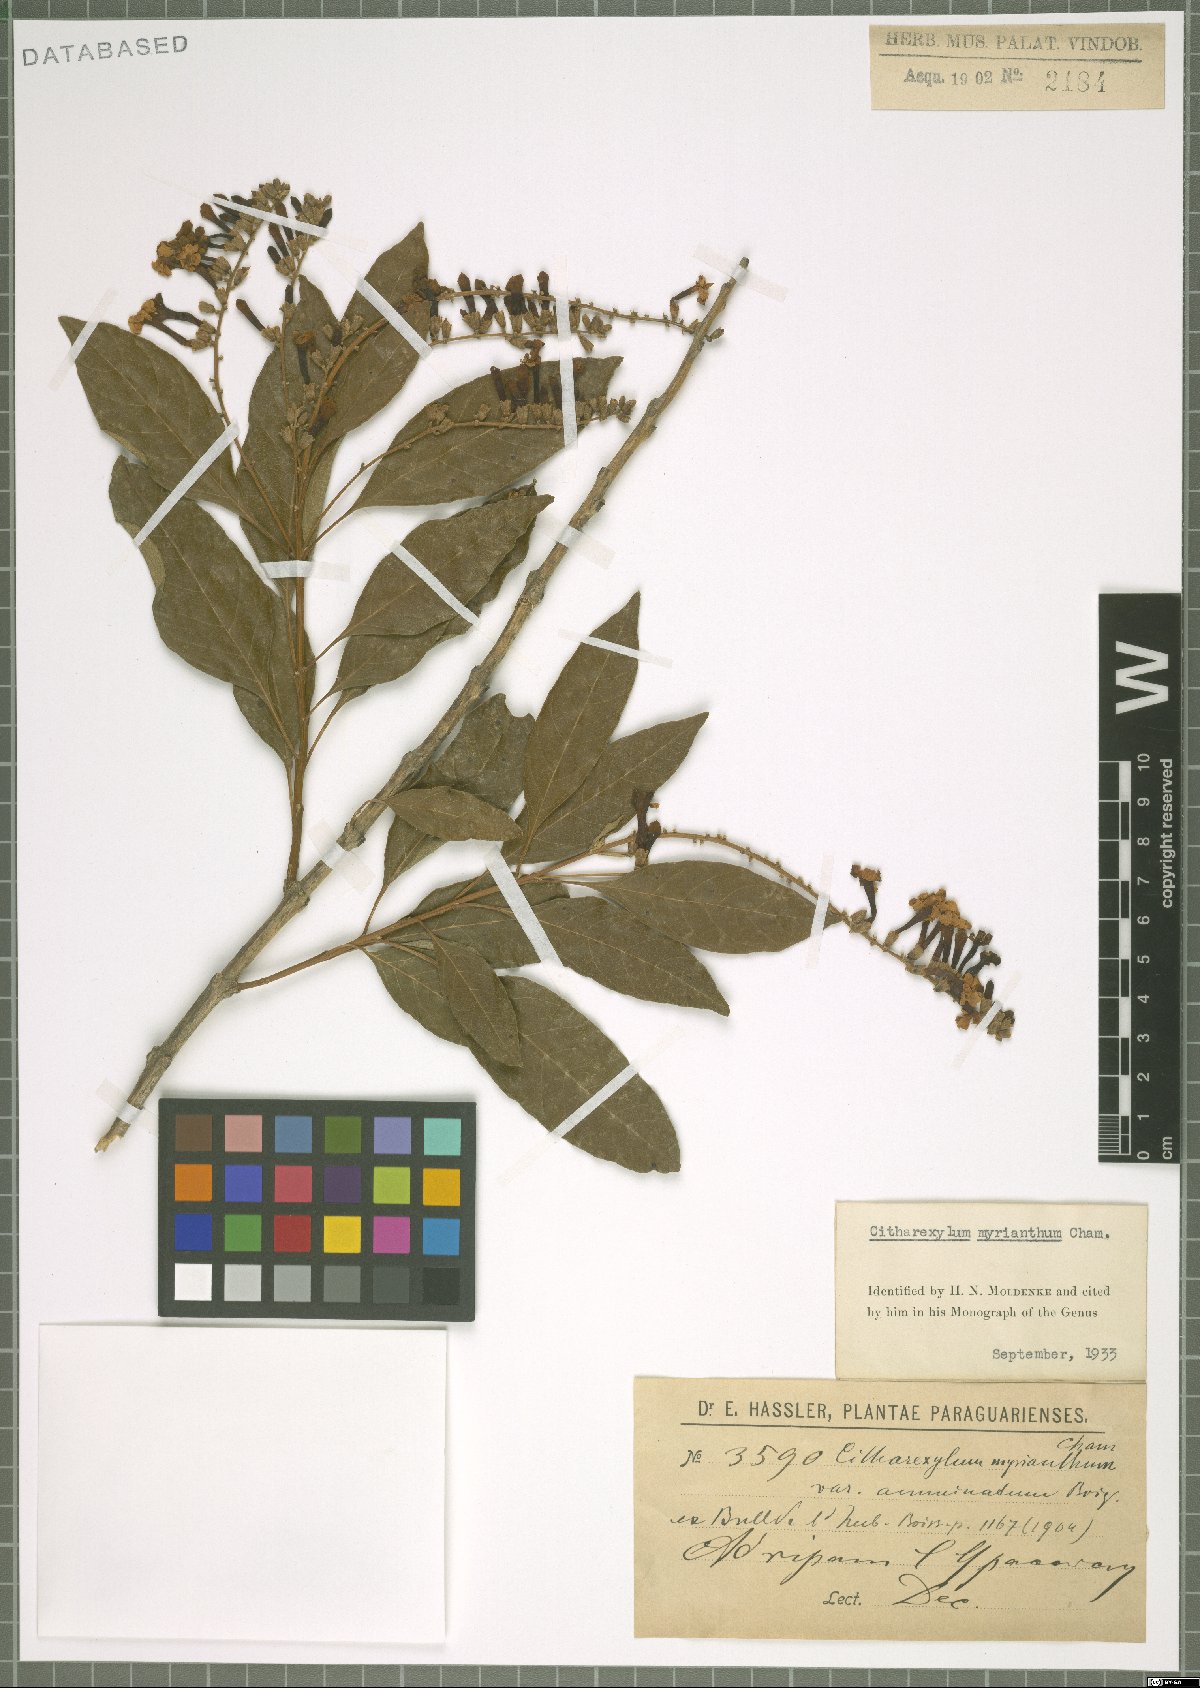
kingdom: Plantae
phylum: Tracheophyta
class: Magnoliopsida
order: Lamiales
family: Verbenaceae
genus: Citharexylum
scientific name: Citharexylum myrianthum
